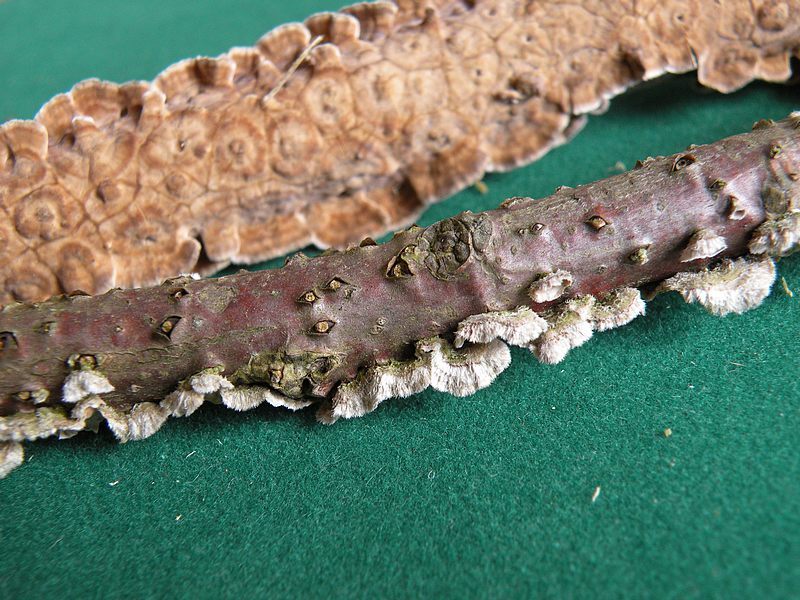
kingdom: Fungi
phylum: Basidiomycota
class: Agaricomycetes
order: Russulales
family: Stereaceae
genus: Stereum
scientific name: Stereum complicatum
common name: liden lædersvamp
